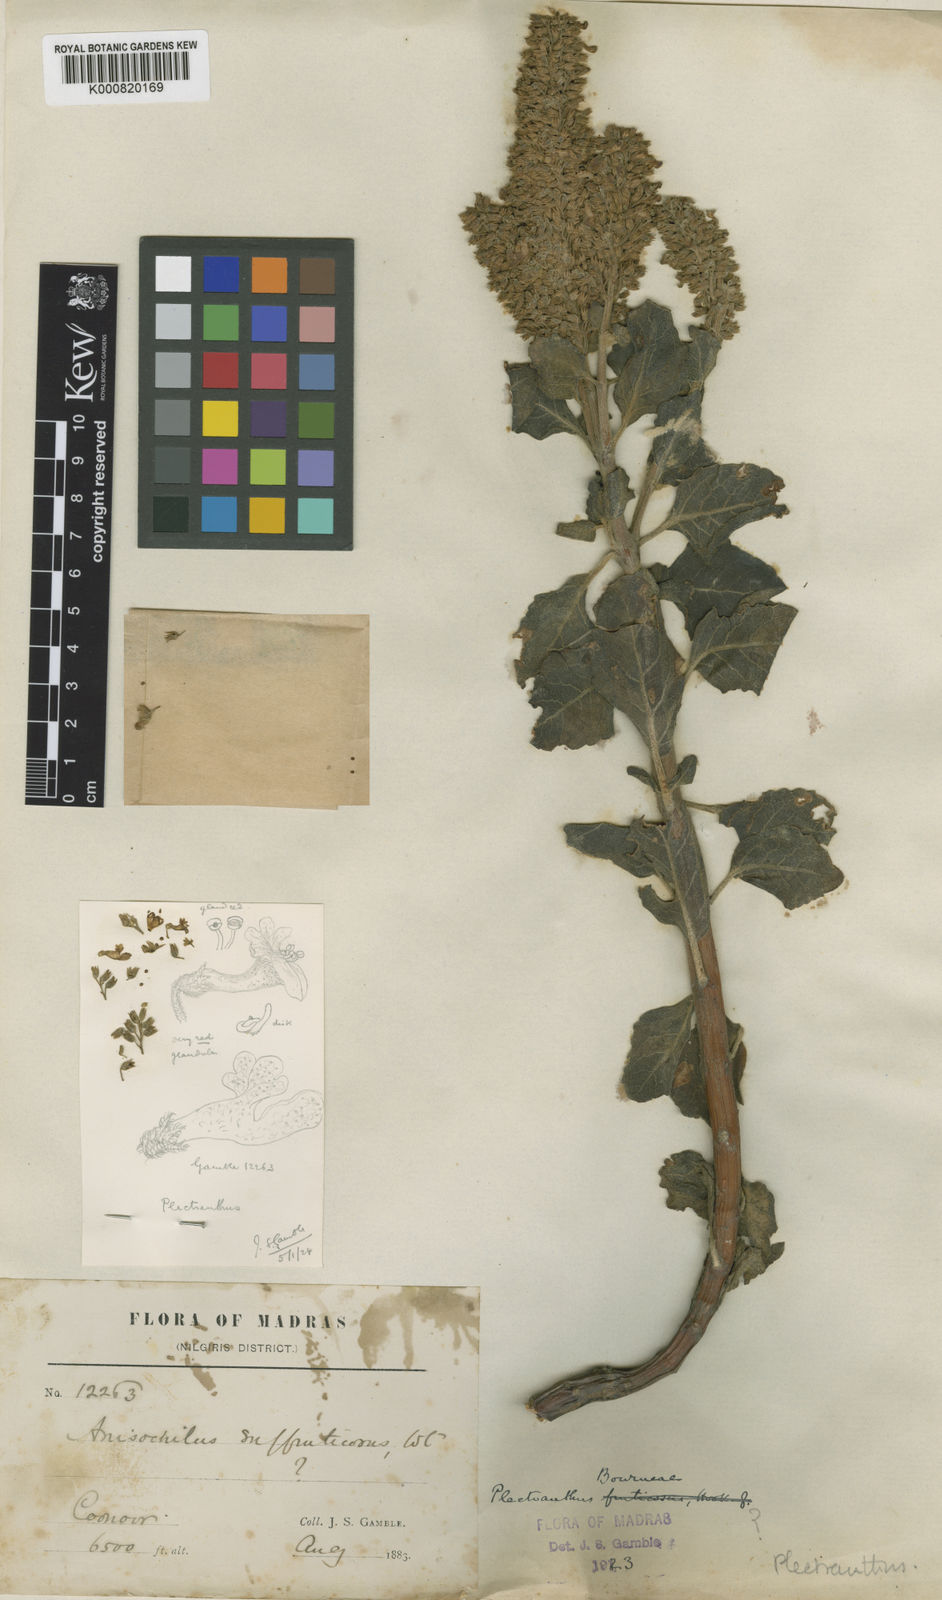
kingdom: Plantae
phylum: Tracheophyta
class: Magnoliopsida
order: Lamiales
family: Lamiaceae
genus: Coleus
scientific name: Coleus bourneae
